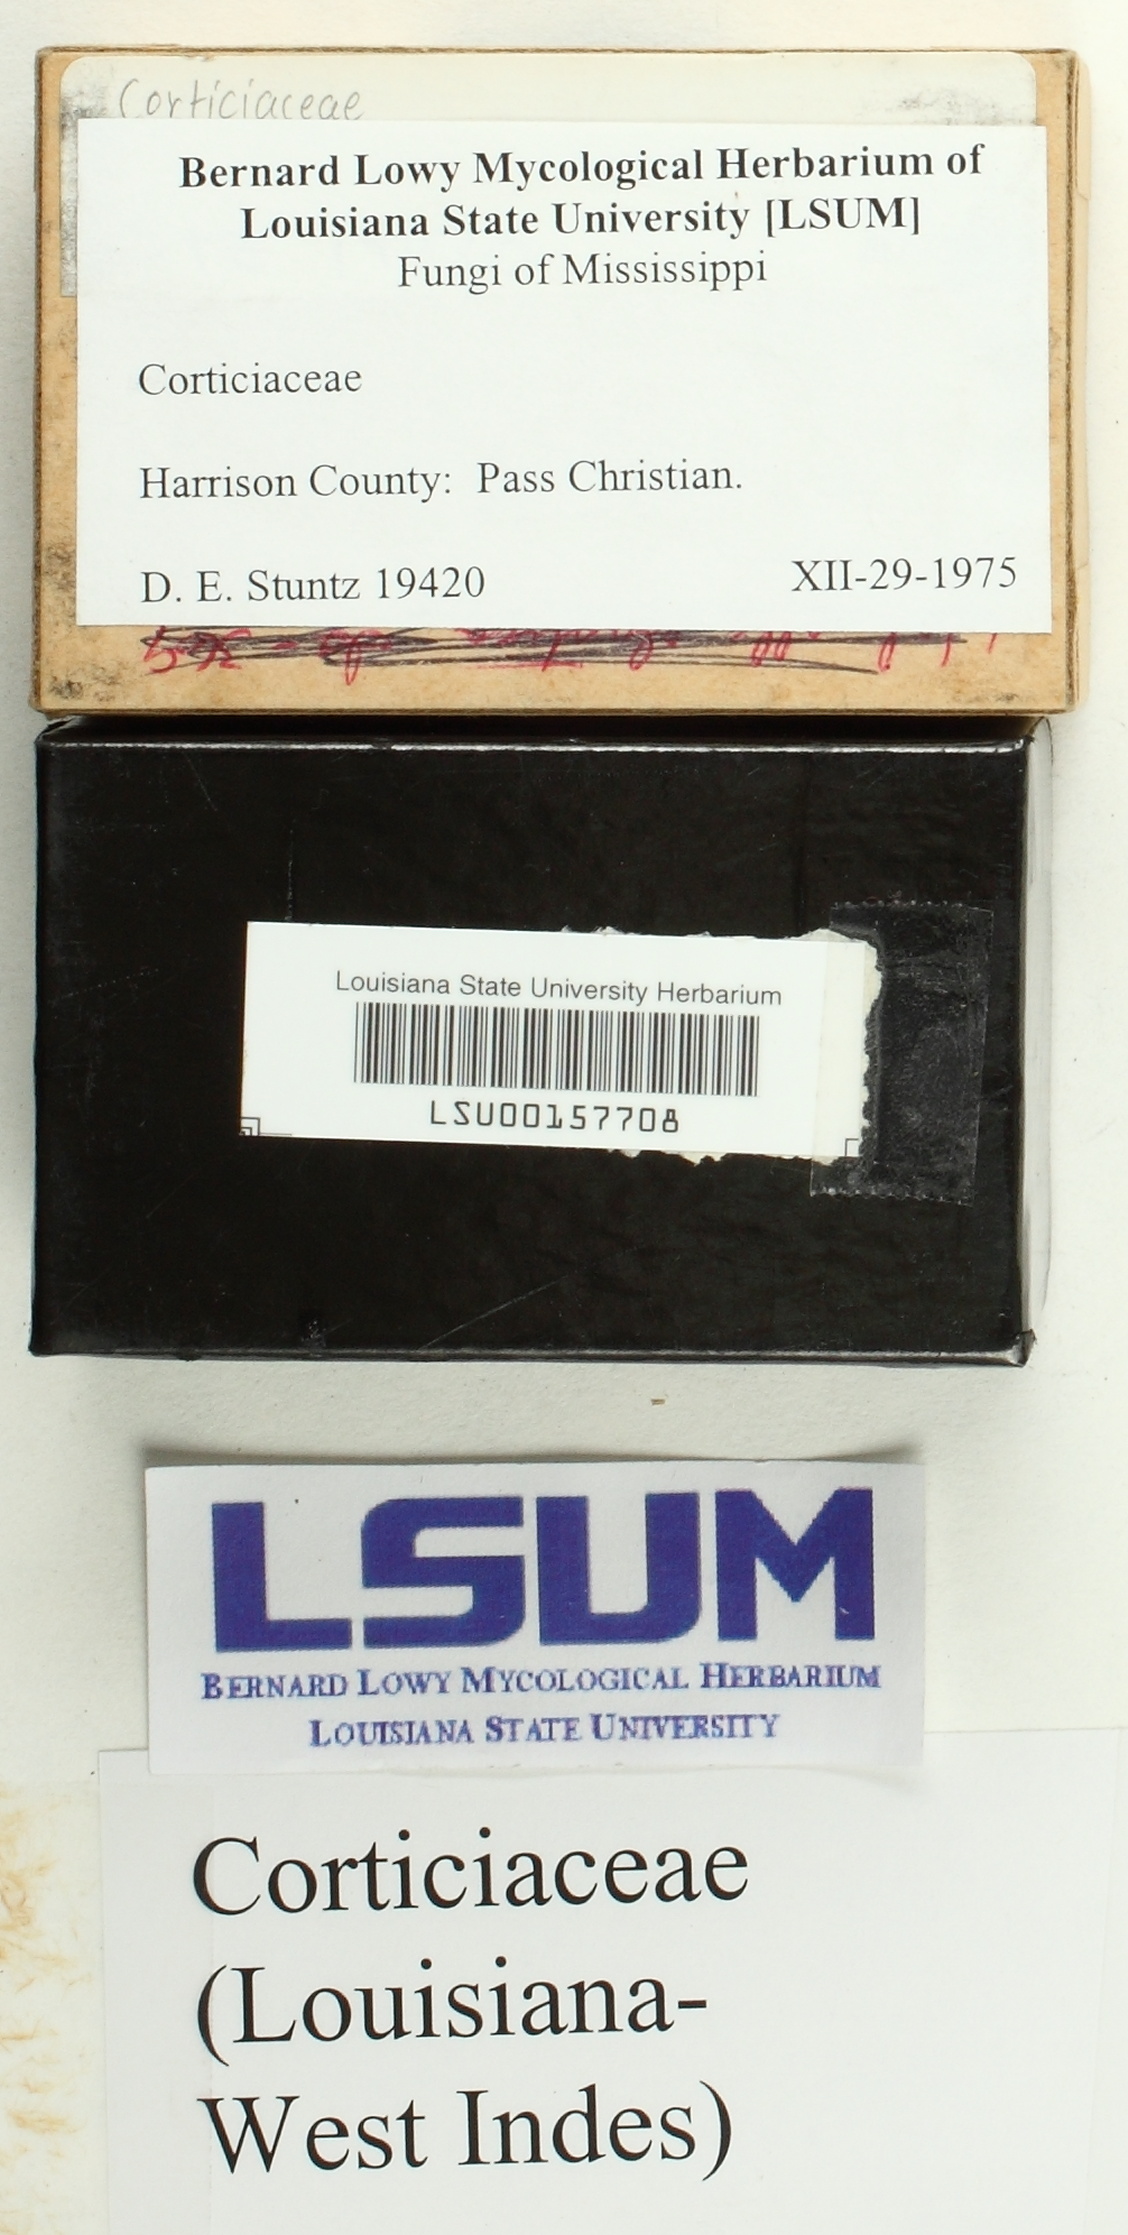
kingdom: Fungi
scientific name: Fungi
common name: Fungi
